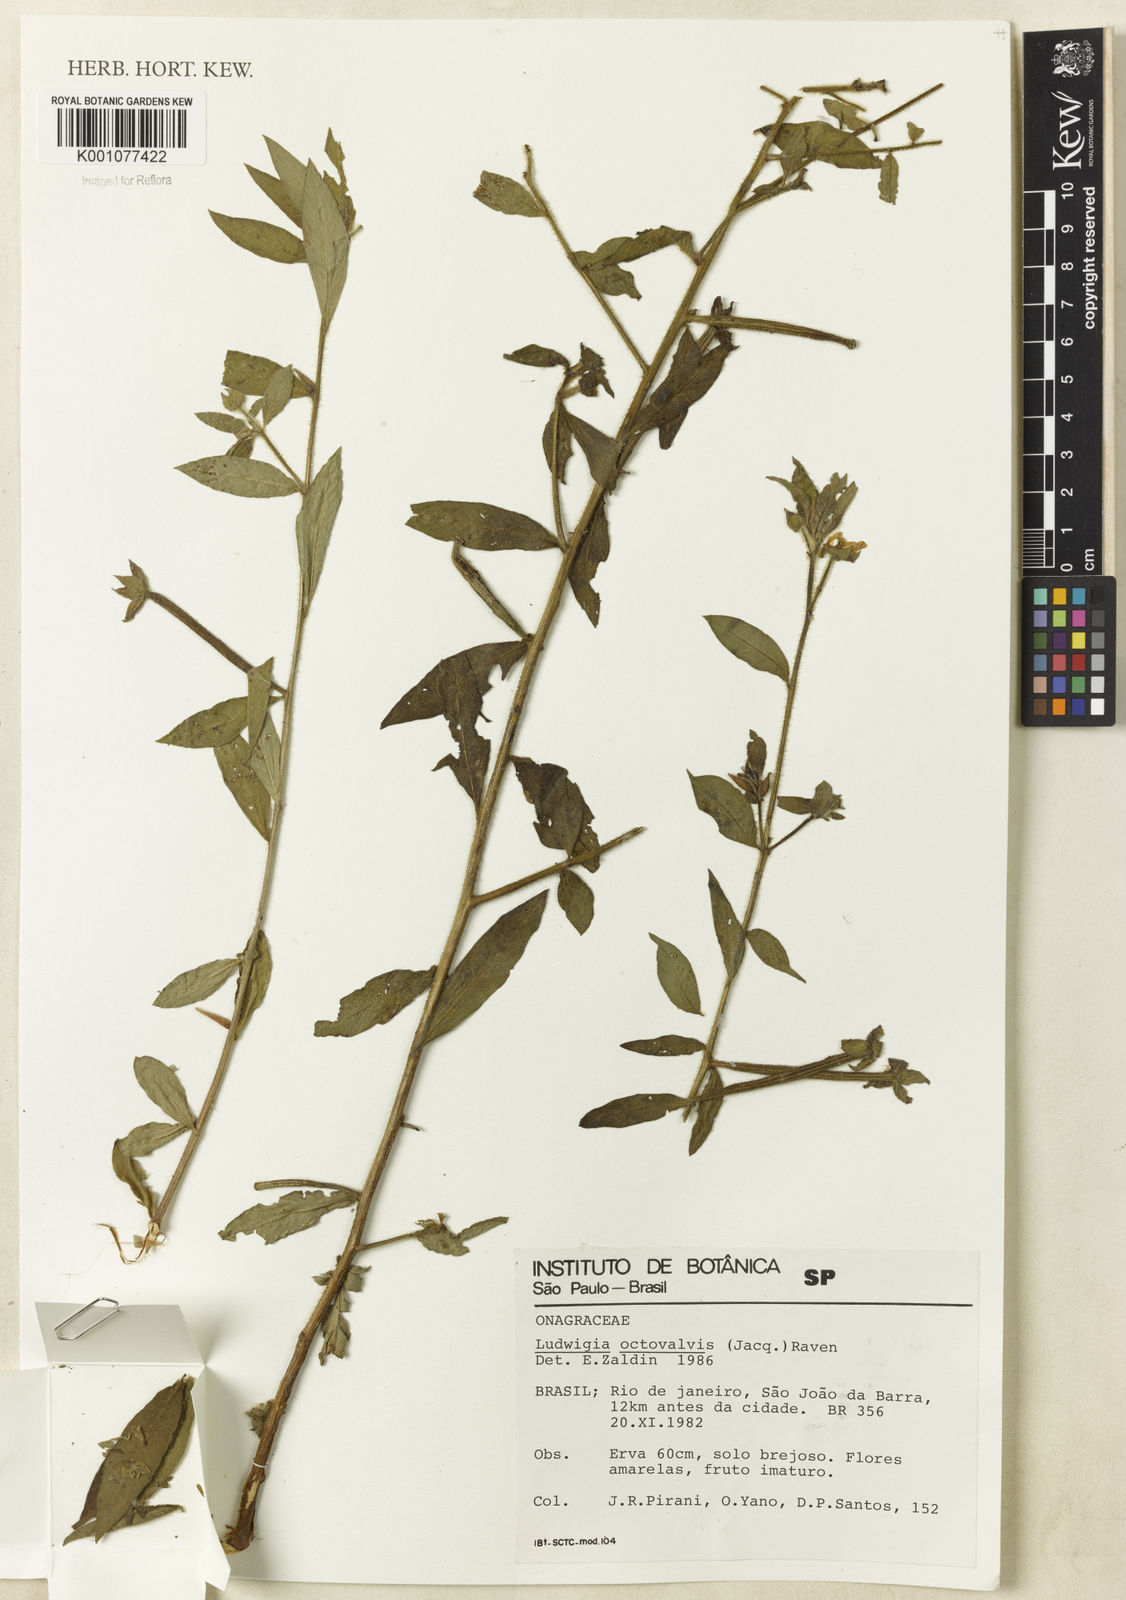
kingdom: Plantae
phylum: Tracheophyta
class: Magnoliopsida
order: Myrtales
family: Onagraceae
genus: Ludwigia
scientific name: Ludwigia octovalvis
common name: Water-primrose
